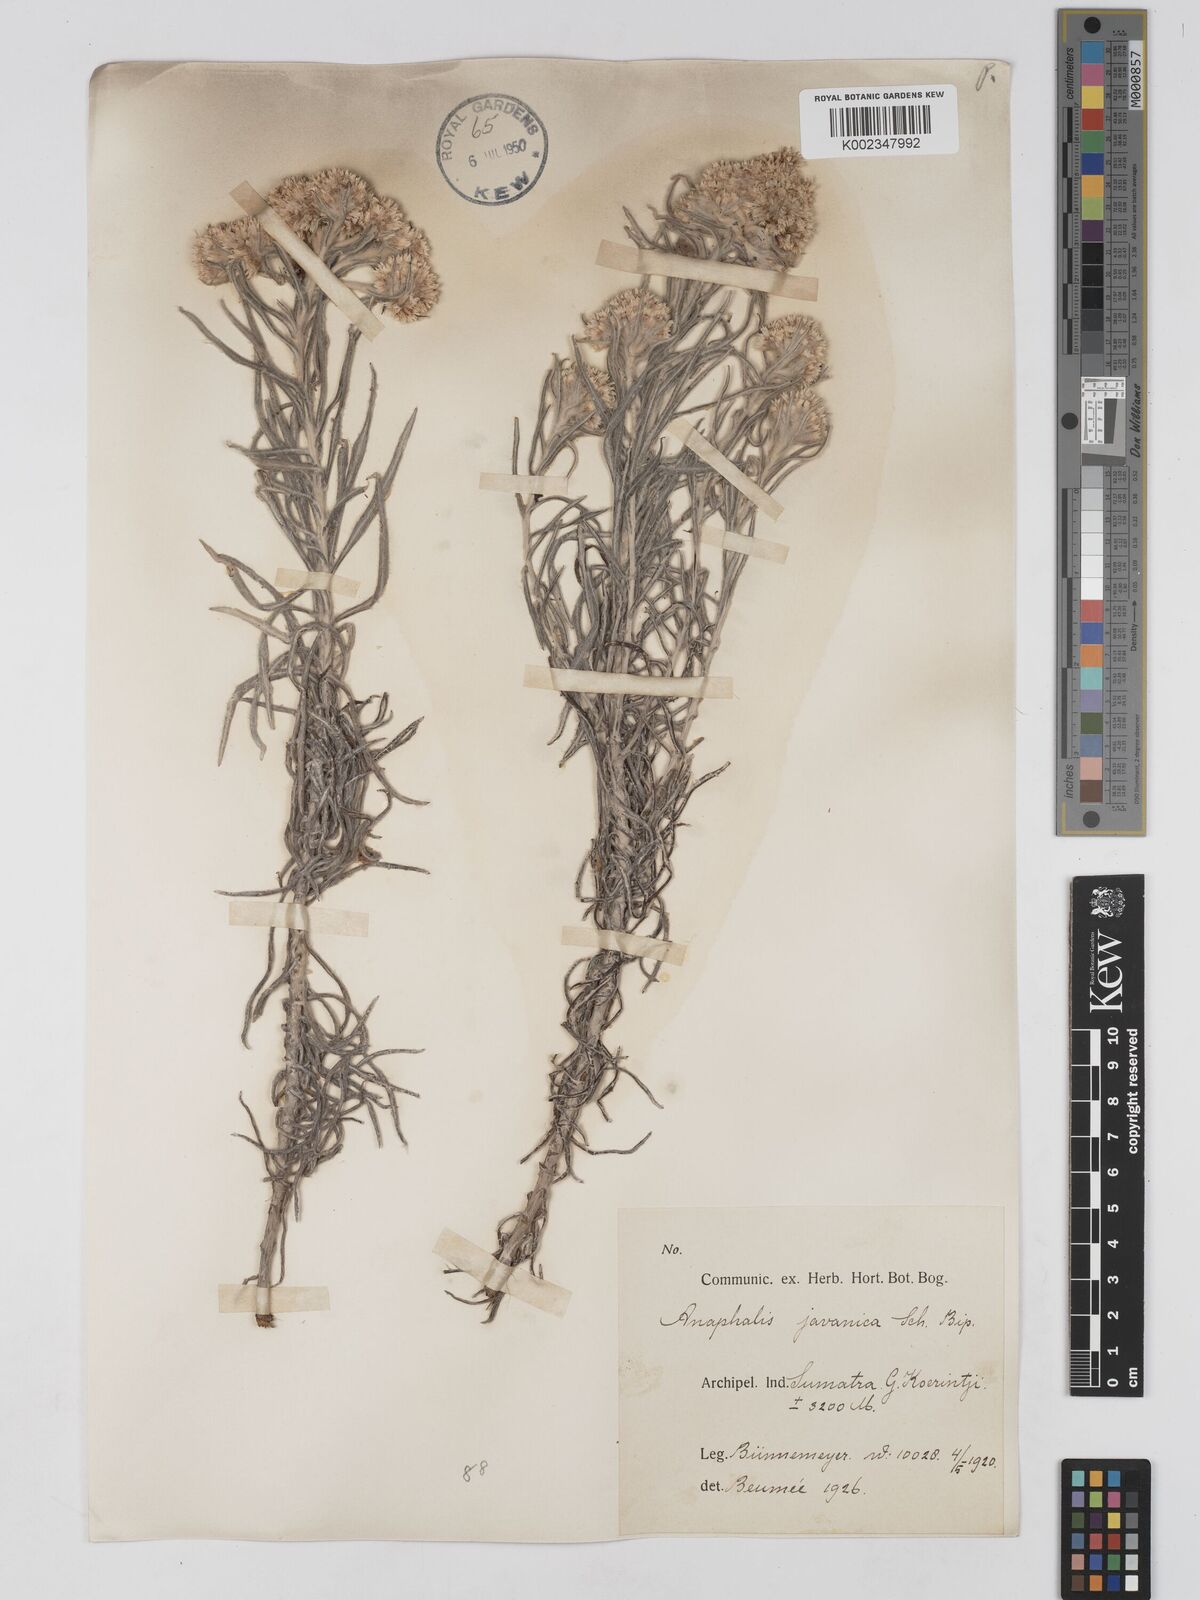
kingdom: Plantae
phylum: Tracheophyta
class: Magnoliopsida
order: Asterales
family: Asteraceae
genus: Anaphalis
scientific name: Anaphalis javanica
